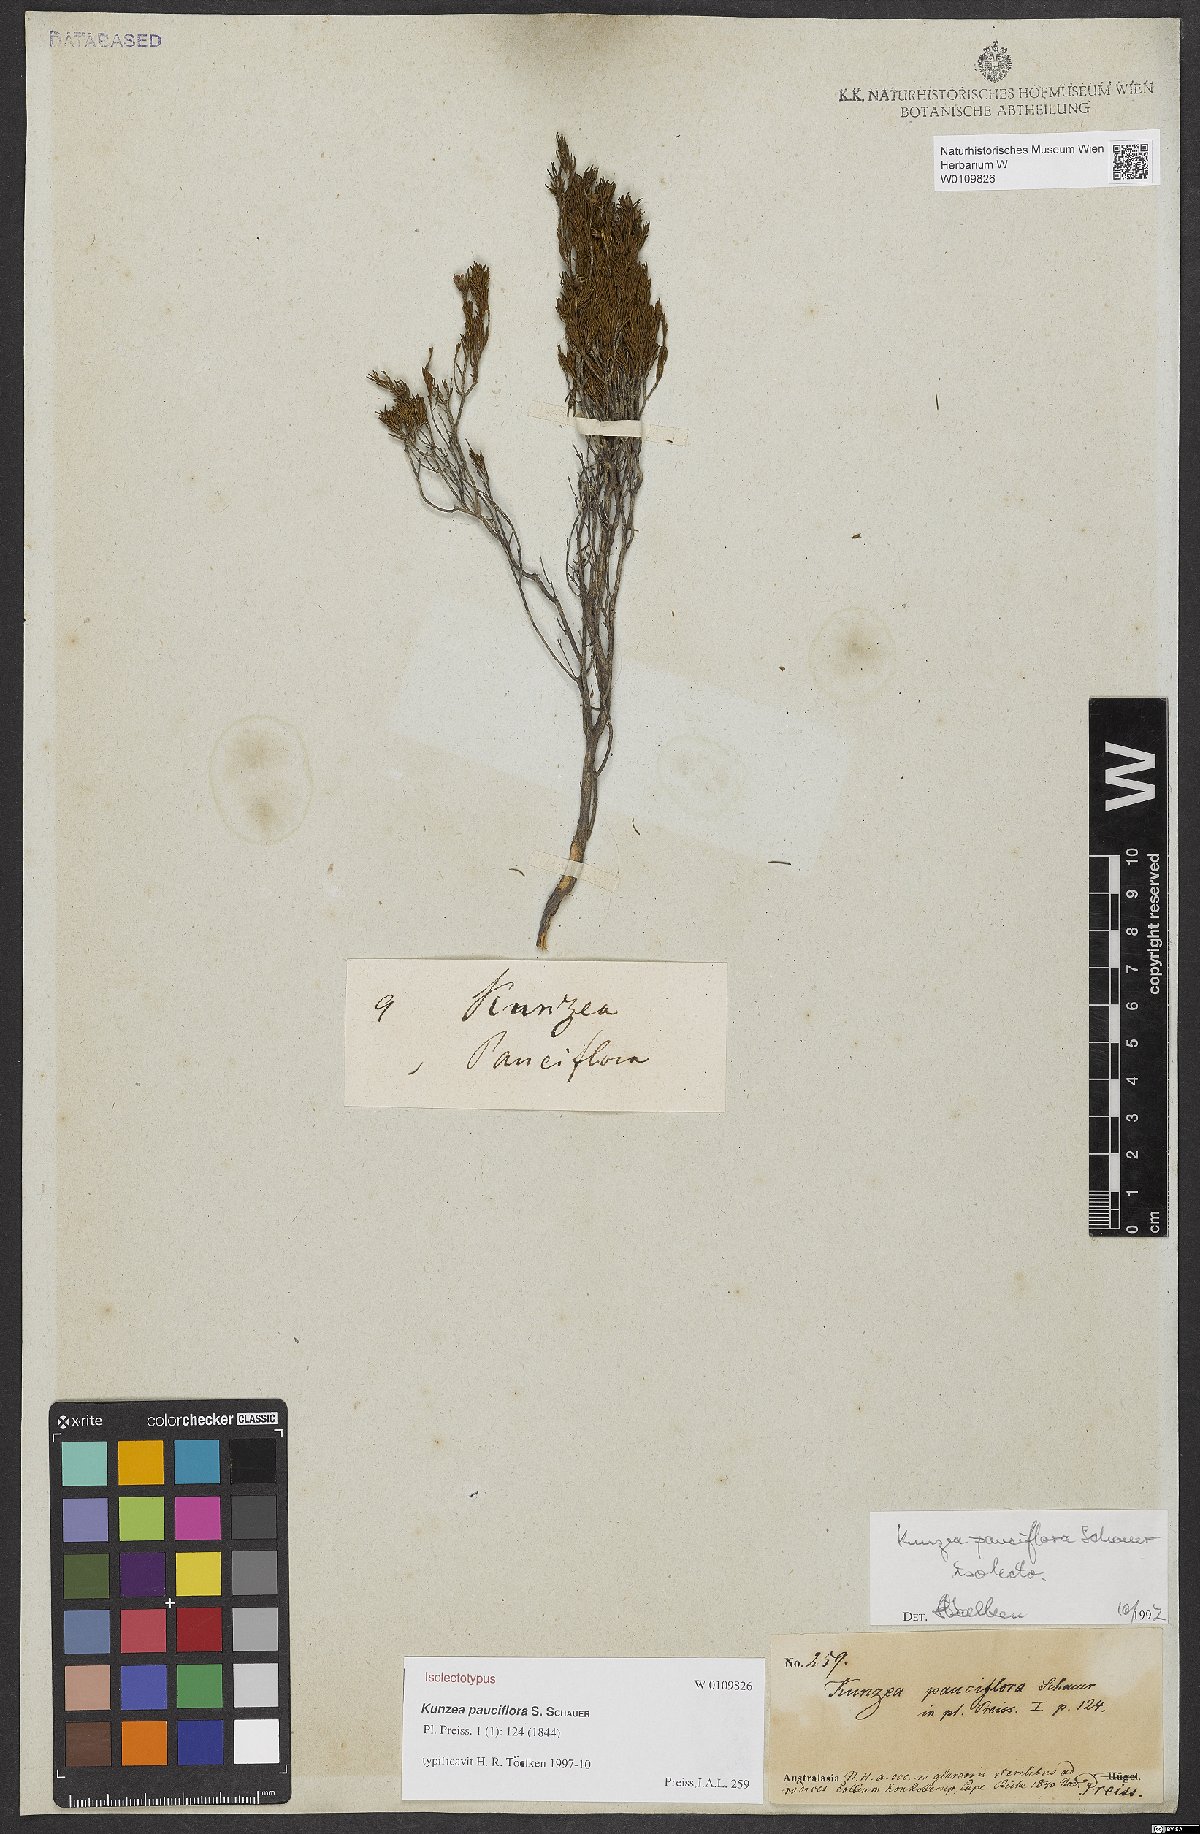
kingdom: Plantae
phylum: Tracheophyta
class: Magnoliopsida
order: Myrtales
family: Myrtaceae
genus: Kunzea
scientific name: Kunzea pauciflora
